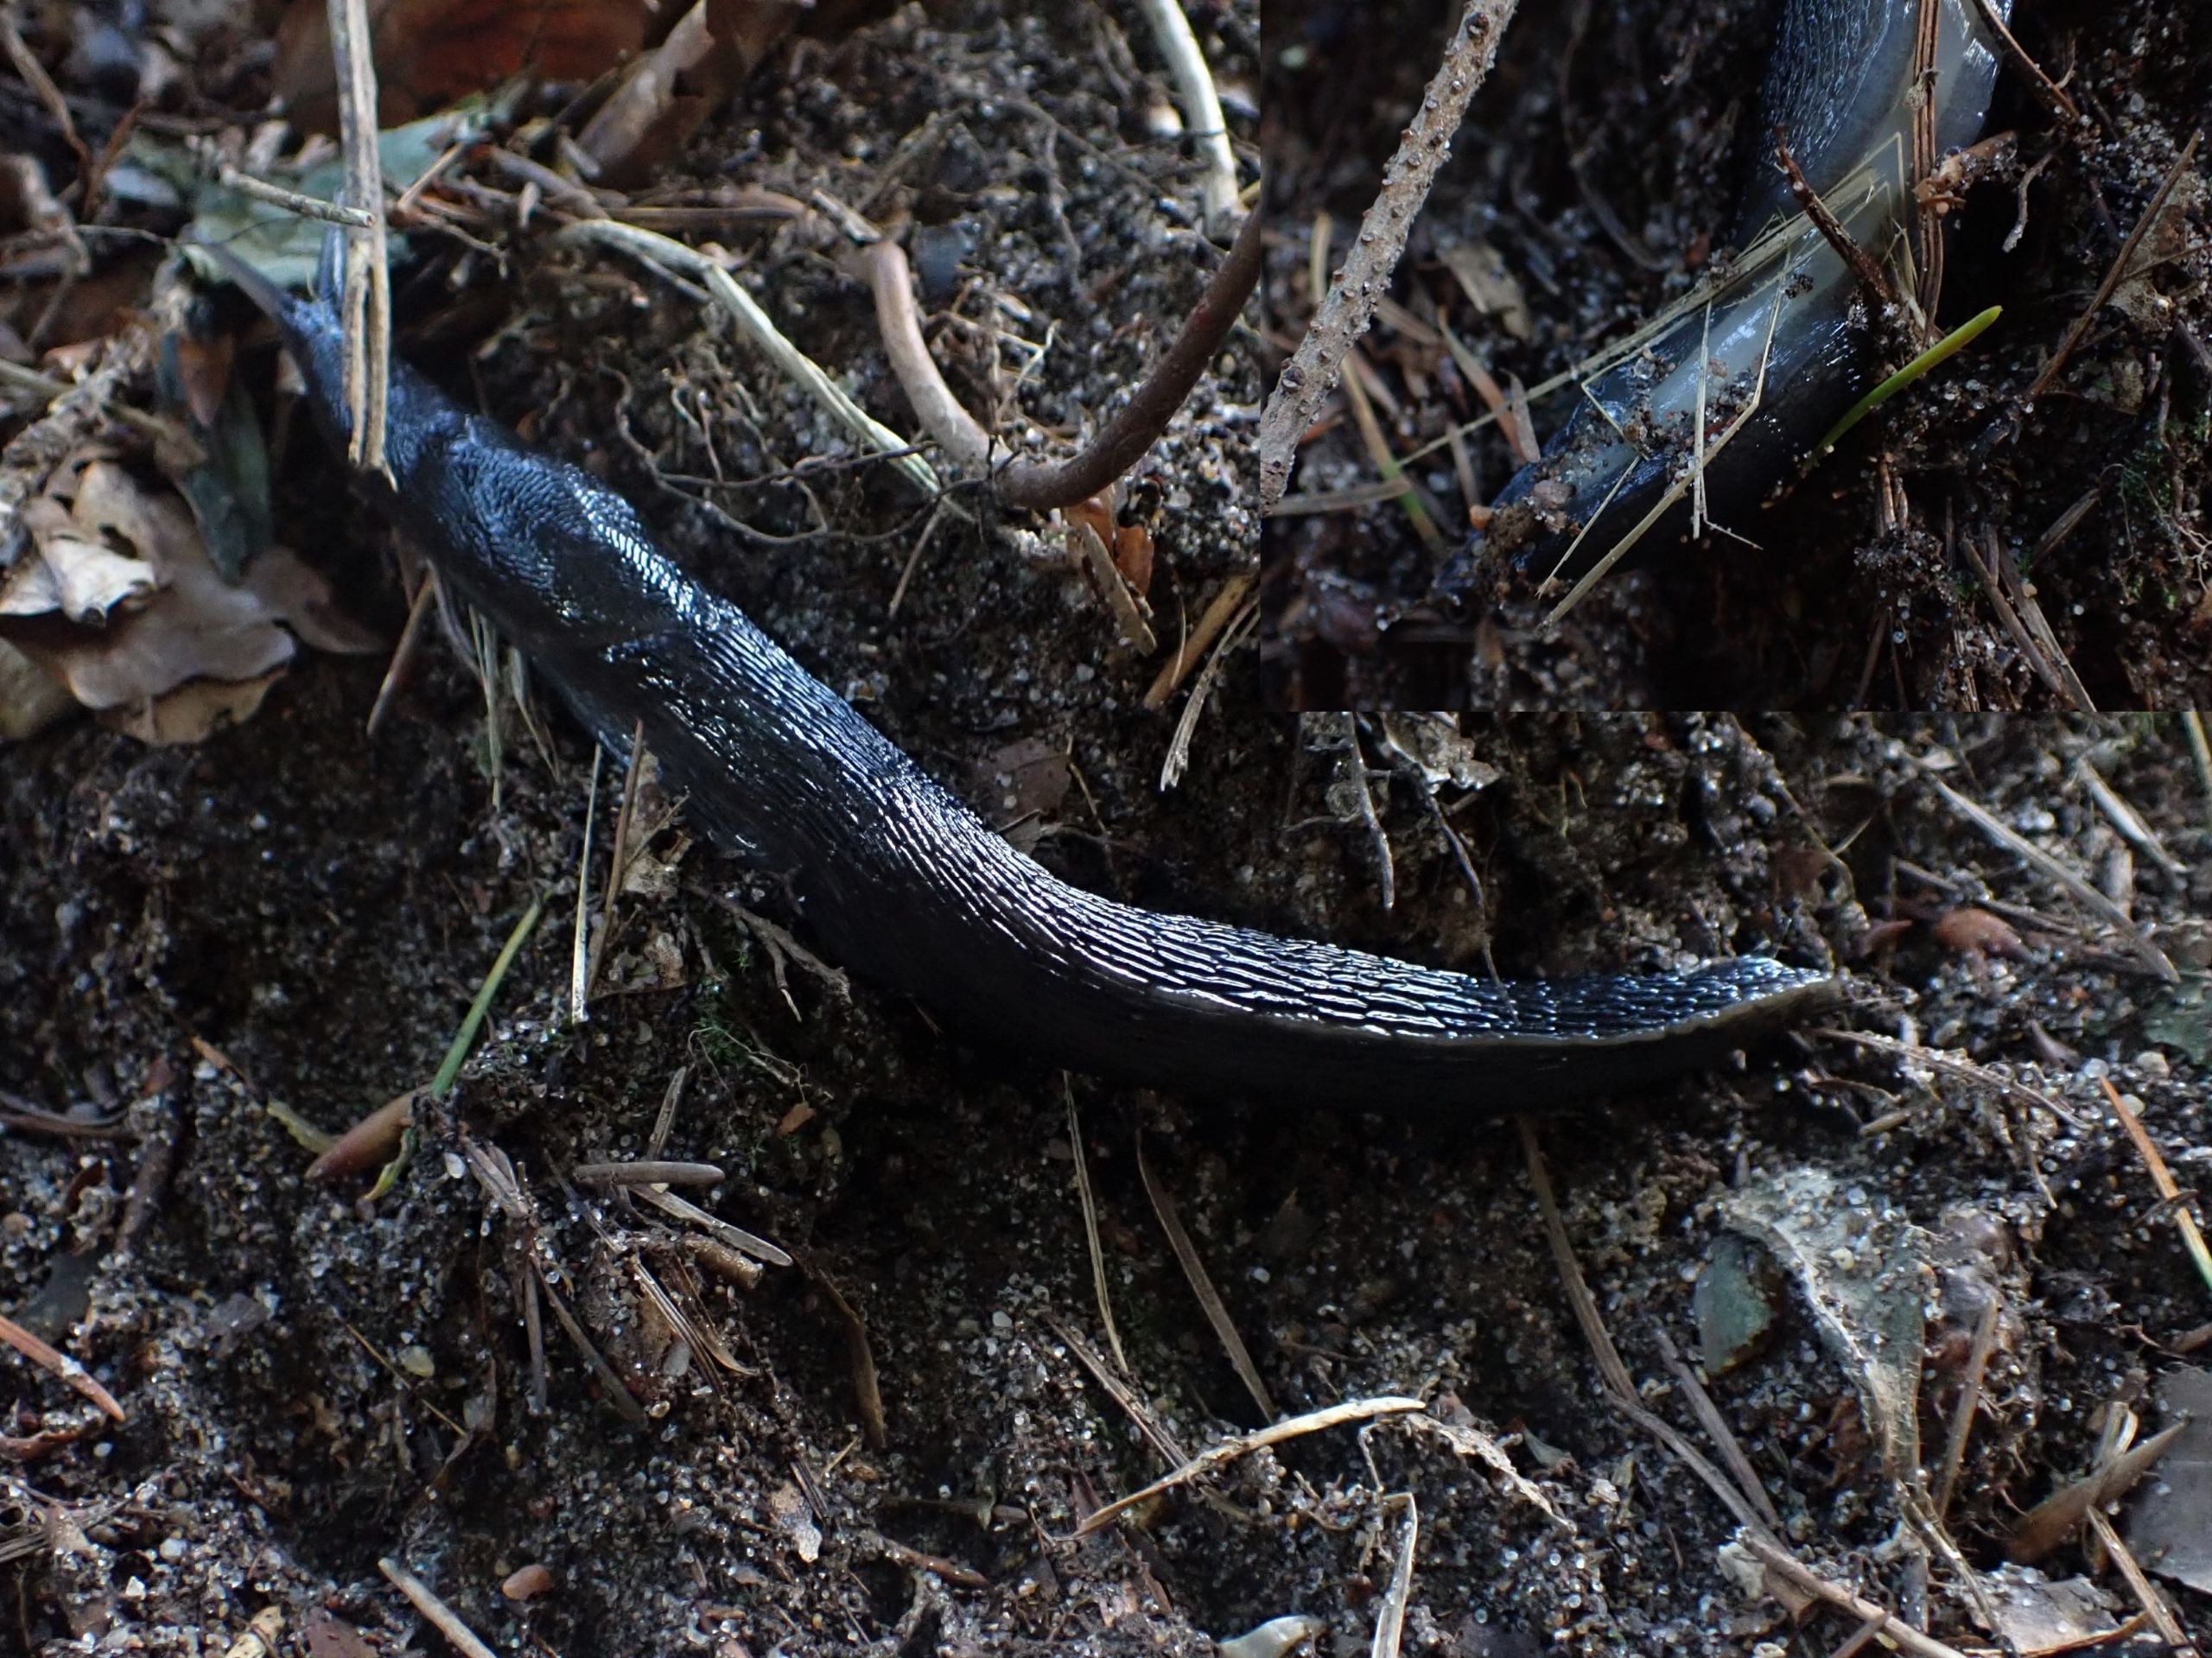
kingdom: Animalia
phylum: Mollusca
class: Gastropoda
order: Stylommatophora
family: Limacidae
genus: Limax
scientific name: Limax cinereoniger
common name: Skovpantersnegl
